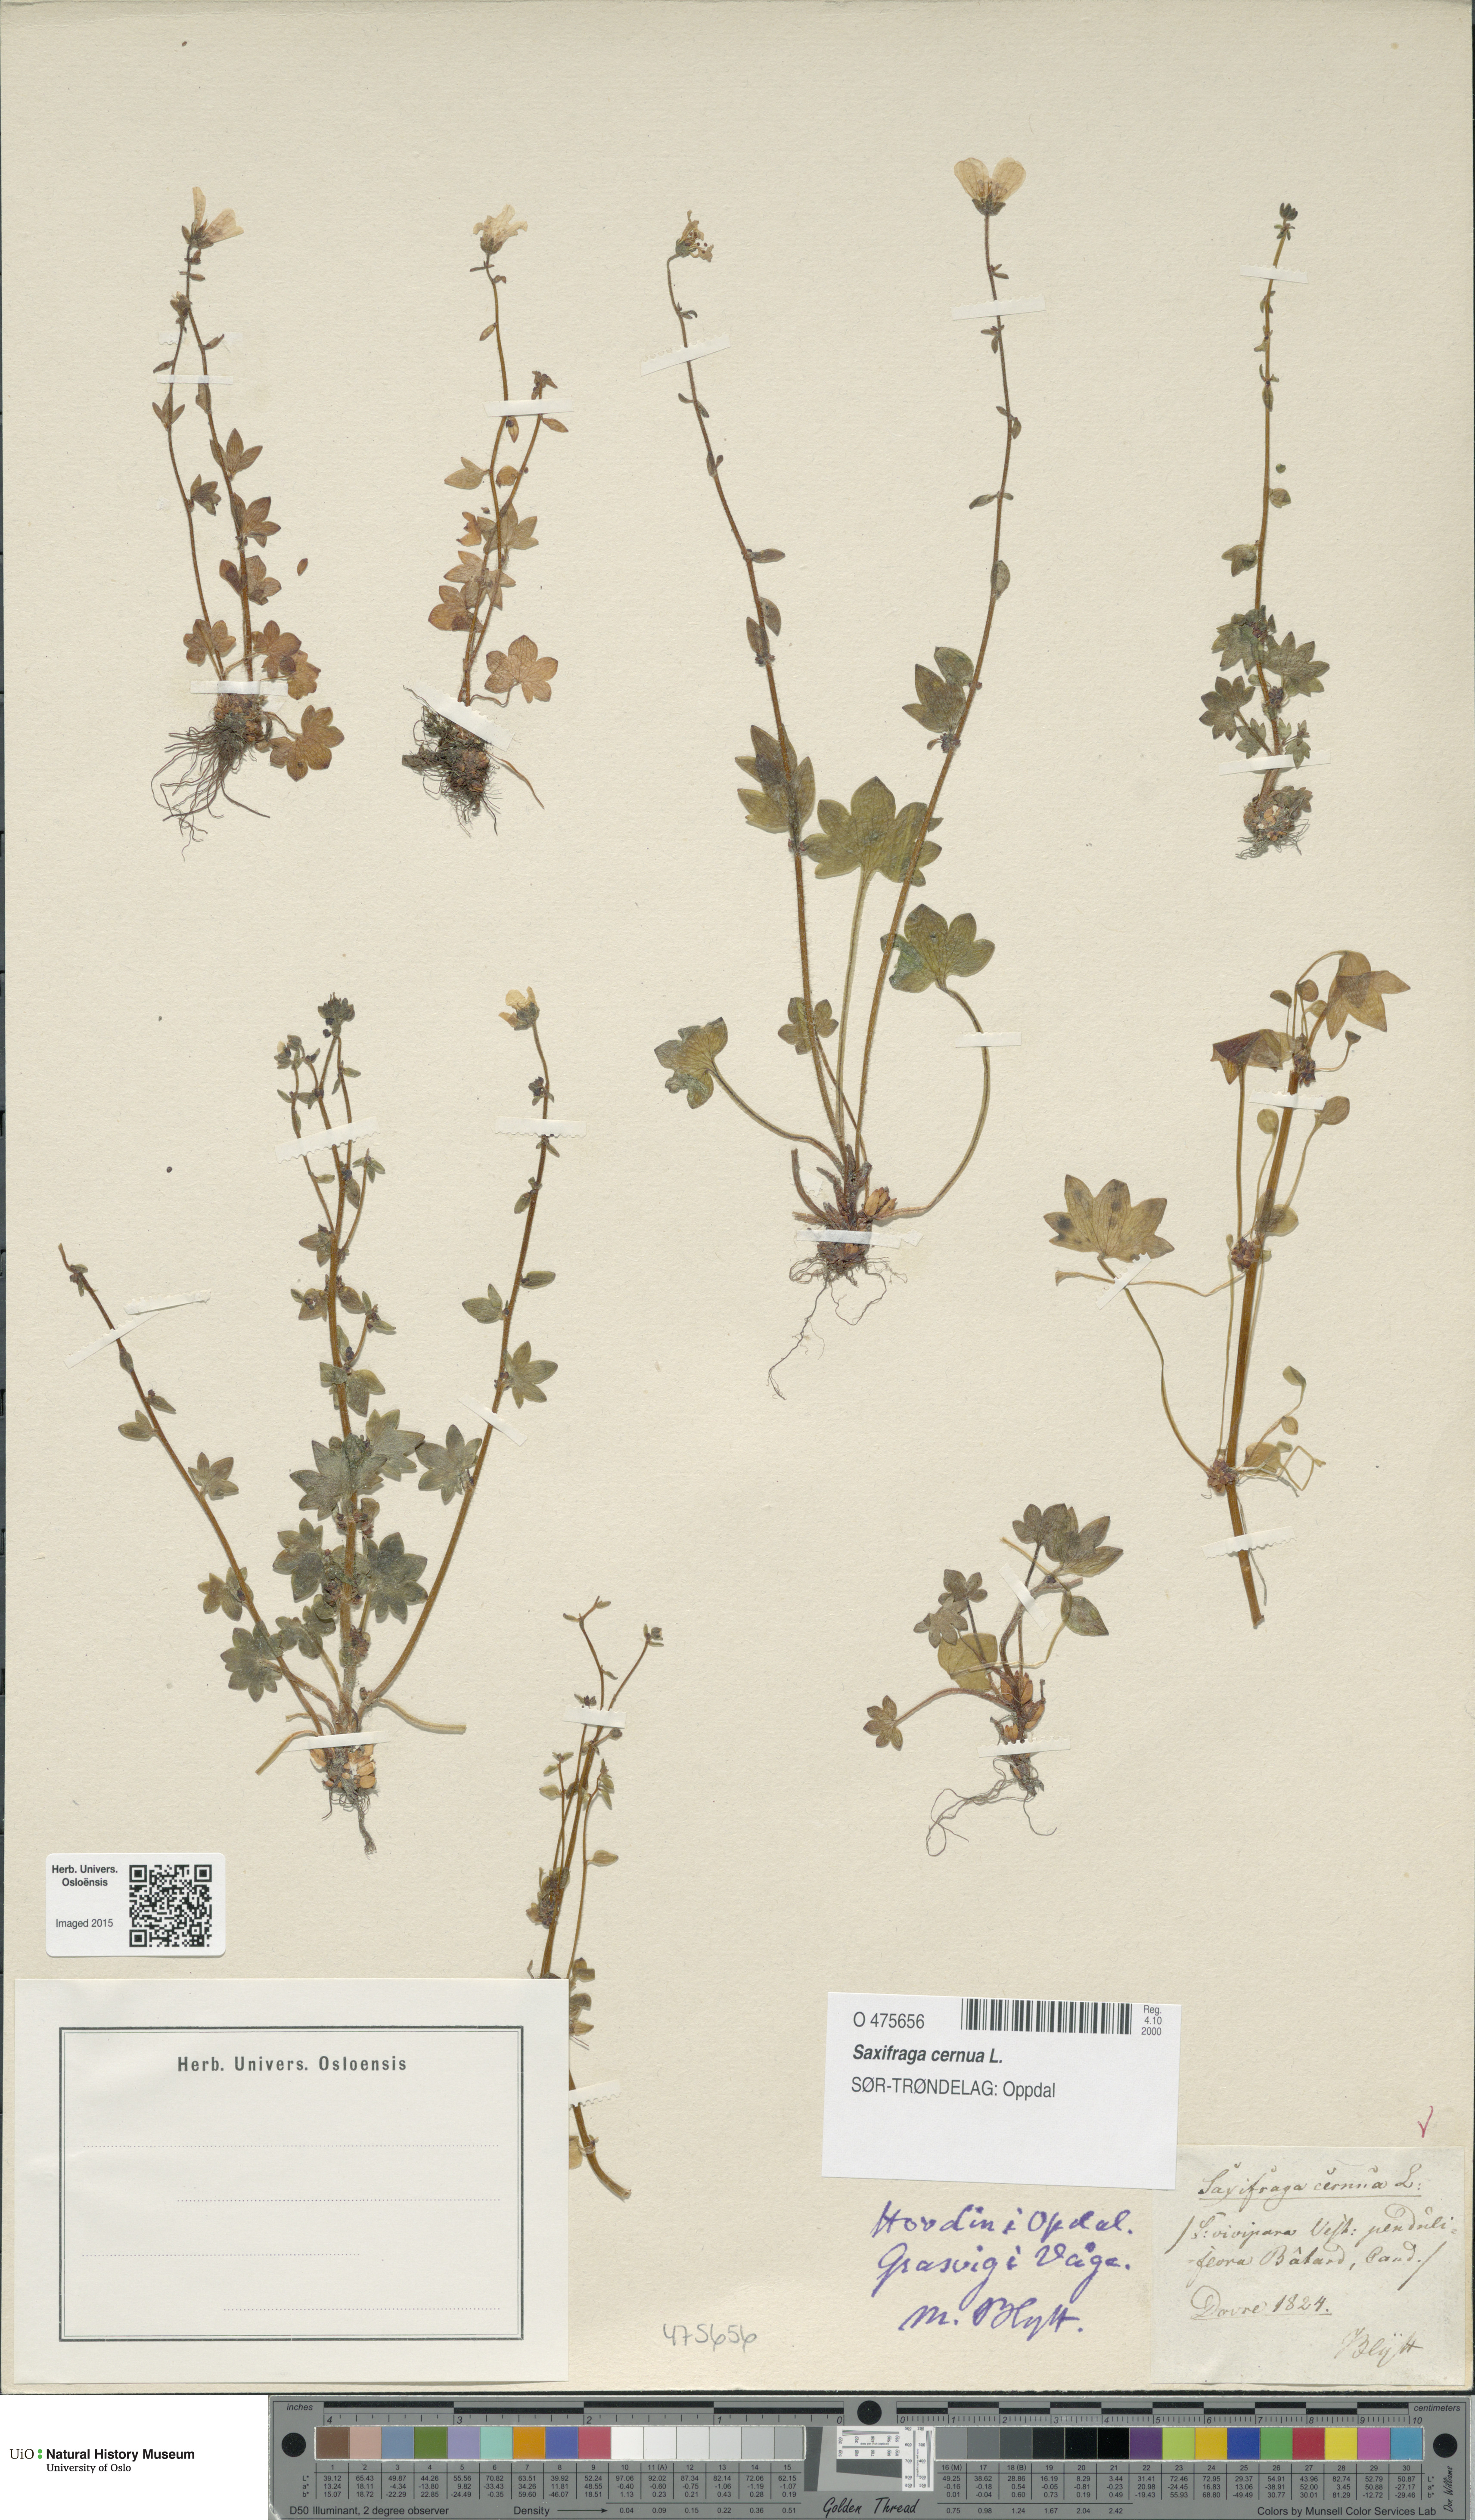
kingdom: Plantae
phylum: Tracheophyta
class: Magnoliopsida
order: Saxifragales
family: Saxifragaceae
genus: Saxifraga
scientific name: Saxifraga cernua
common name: Drooping saxifrage
